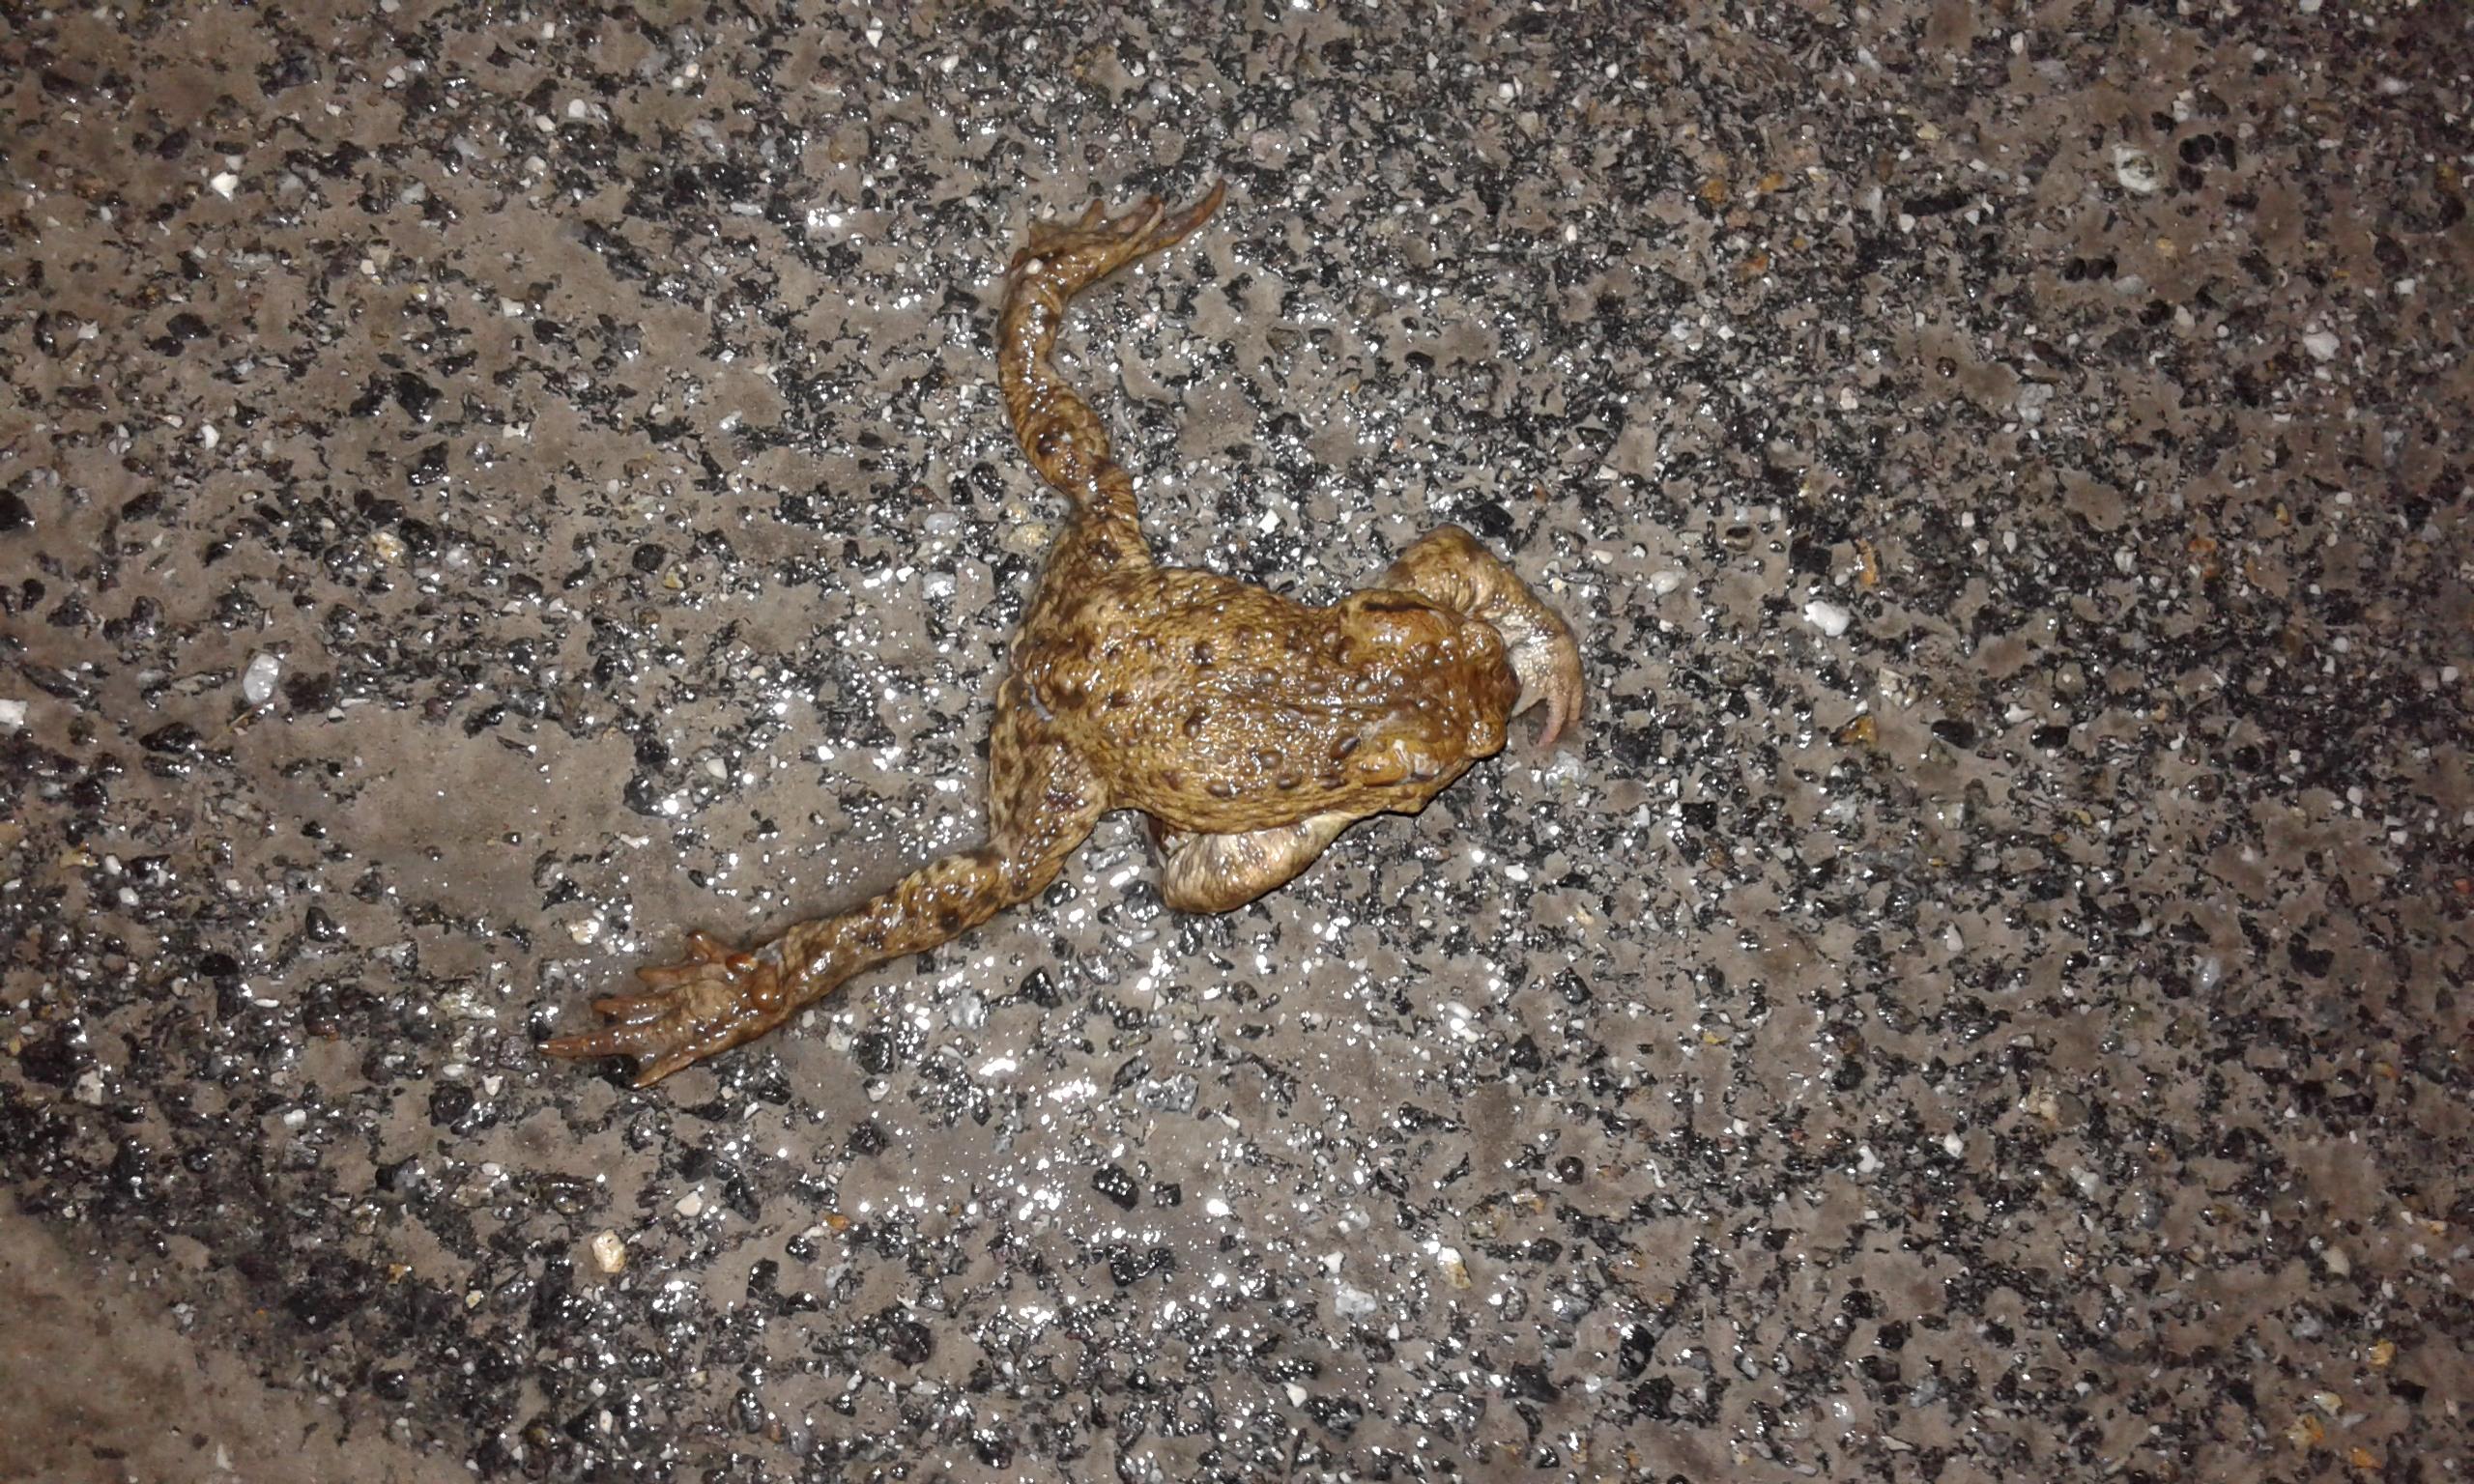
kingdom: Animalia
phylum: Chordata
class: Amphibia
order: Anura
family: Bufonidae
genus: Bufo
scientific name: Bufo bufo
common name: Common toad
